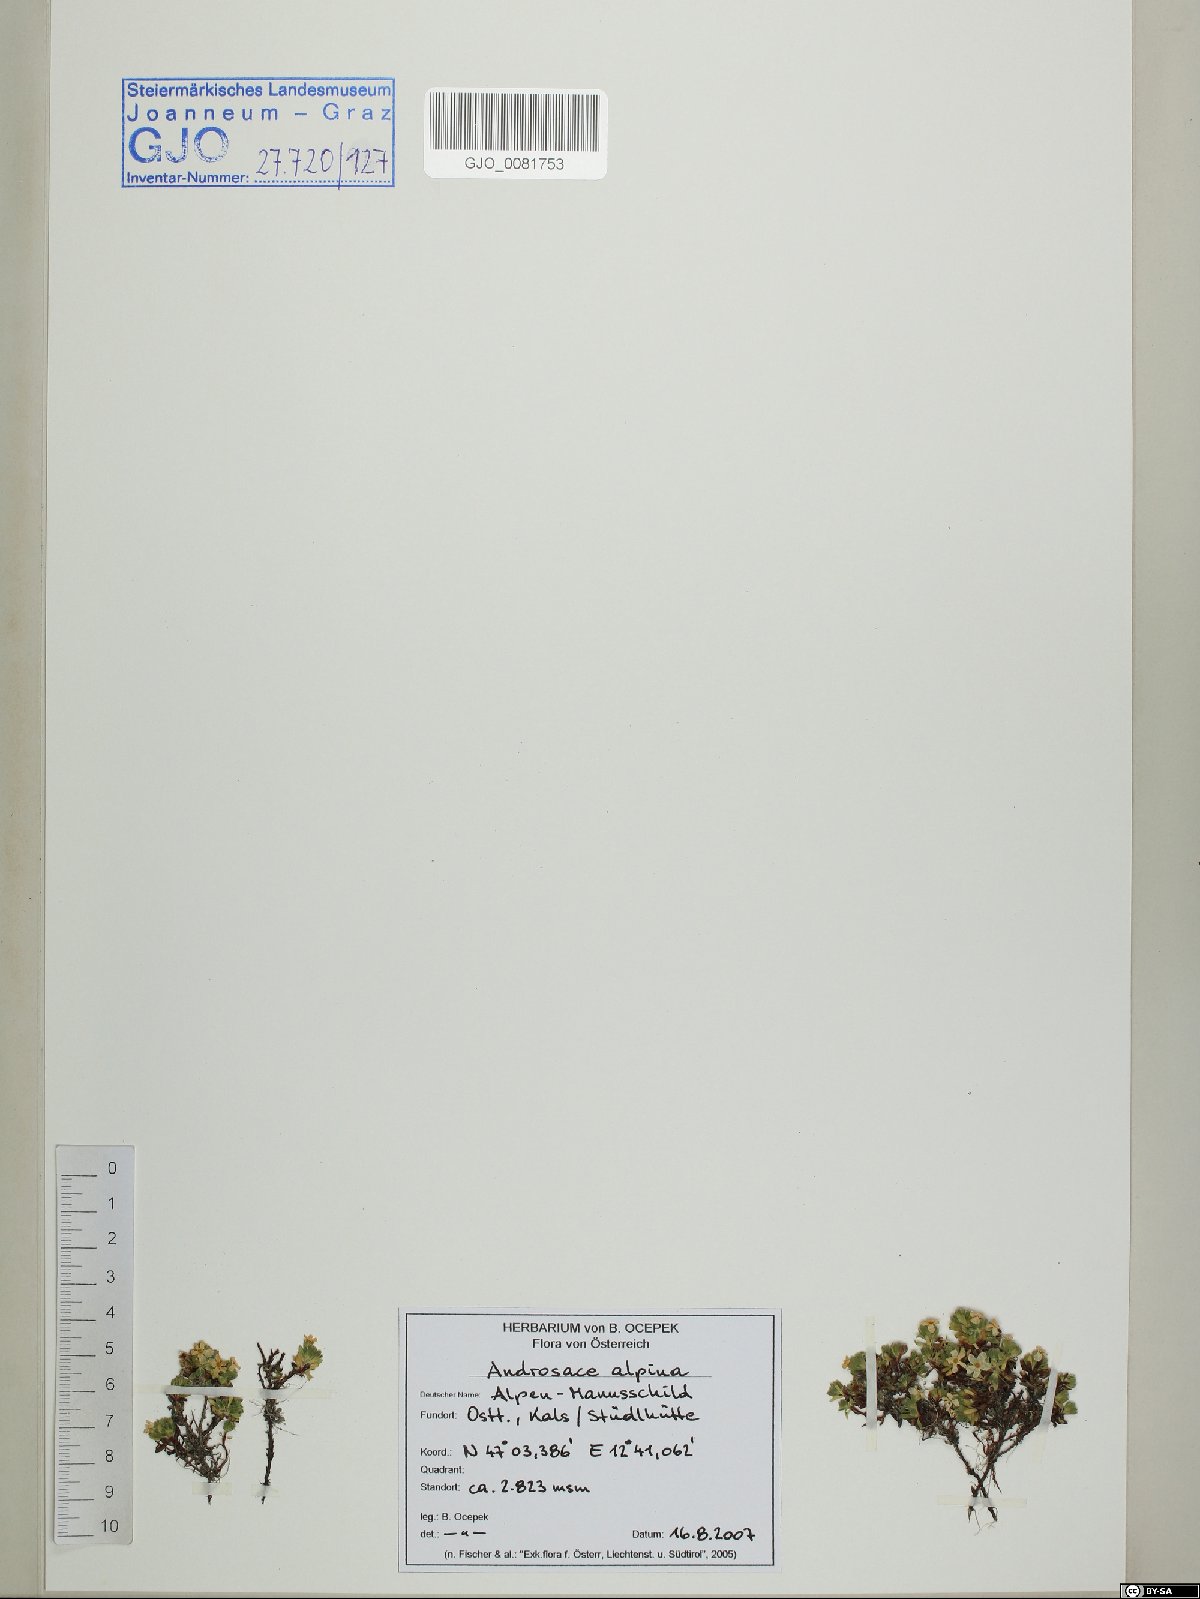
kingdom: Plantae
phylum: Tracheophyta
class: Magnoliopsida
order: Ericales
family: Primulaceae
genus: Androsace
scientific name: Androsace alpina
